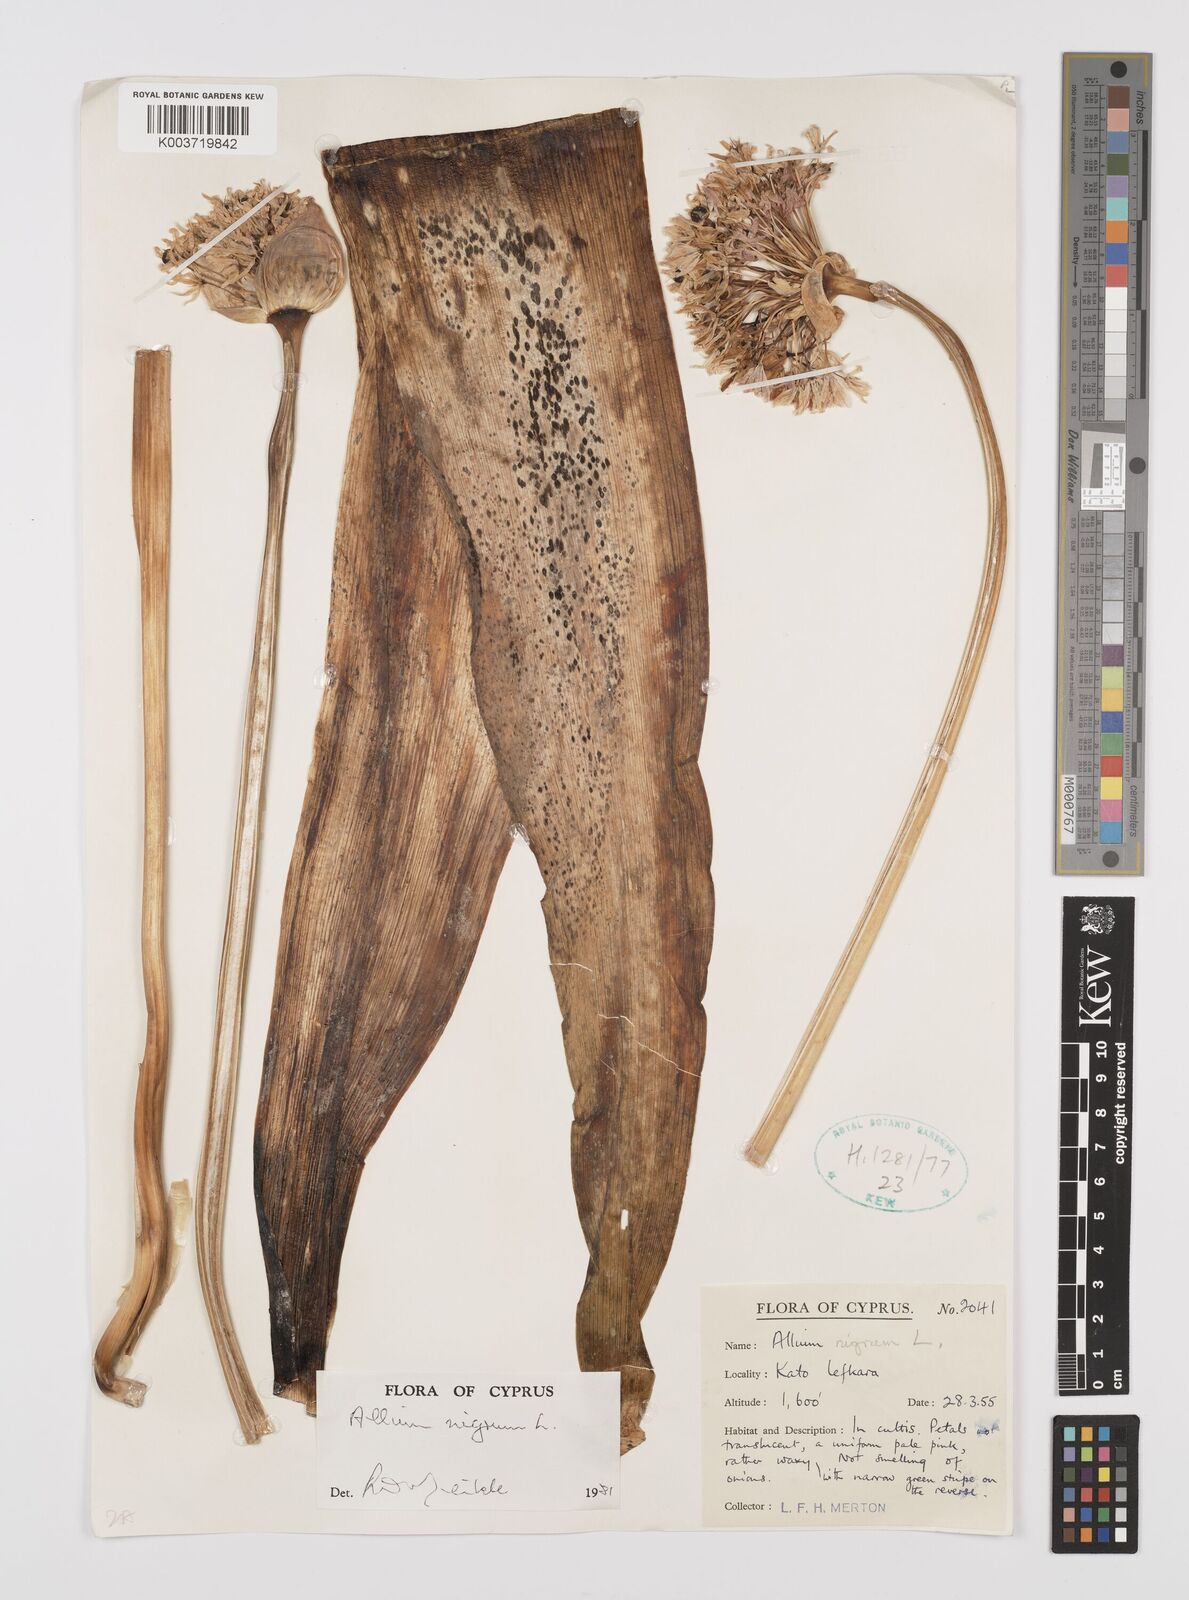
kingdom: Plantae
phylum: Tracheophyta
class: Liliopsida
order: Asparagales
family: Amaryllidaceae
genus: Allium
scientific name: Allium nigrum
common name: Black garlic
